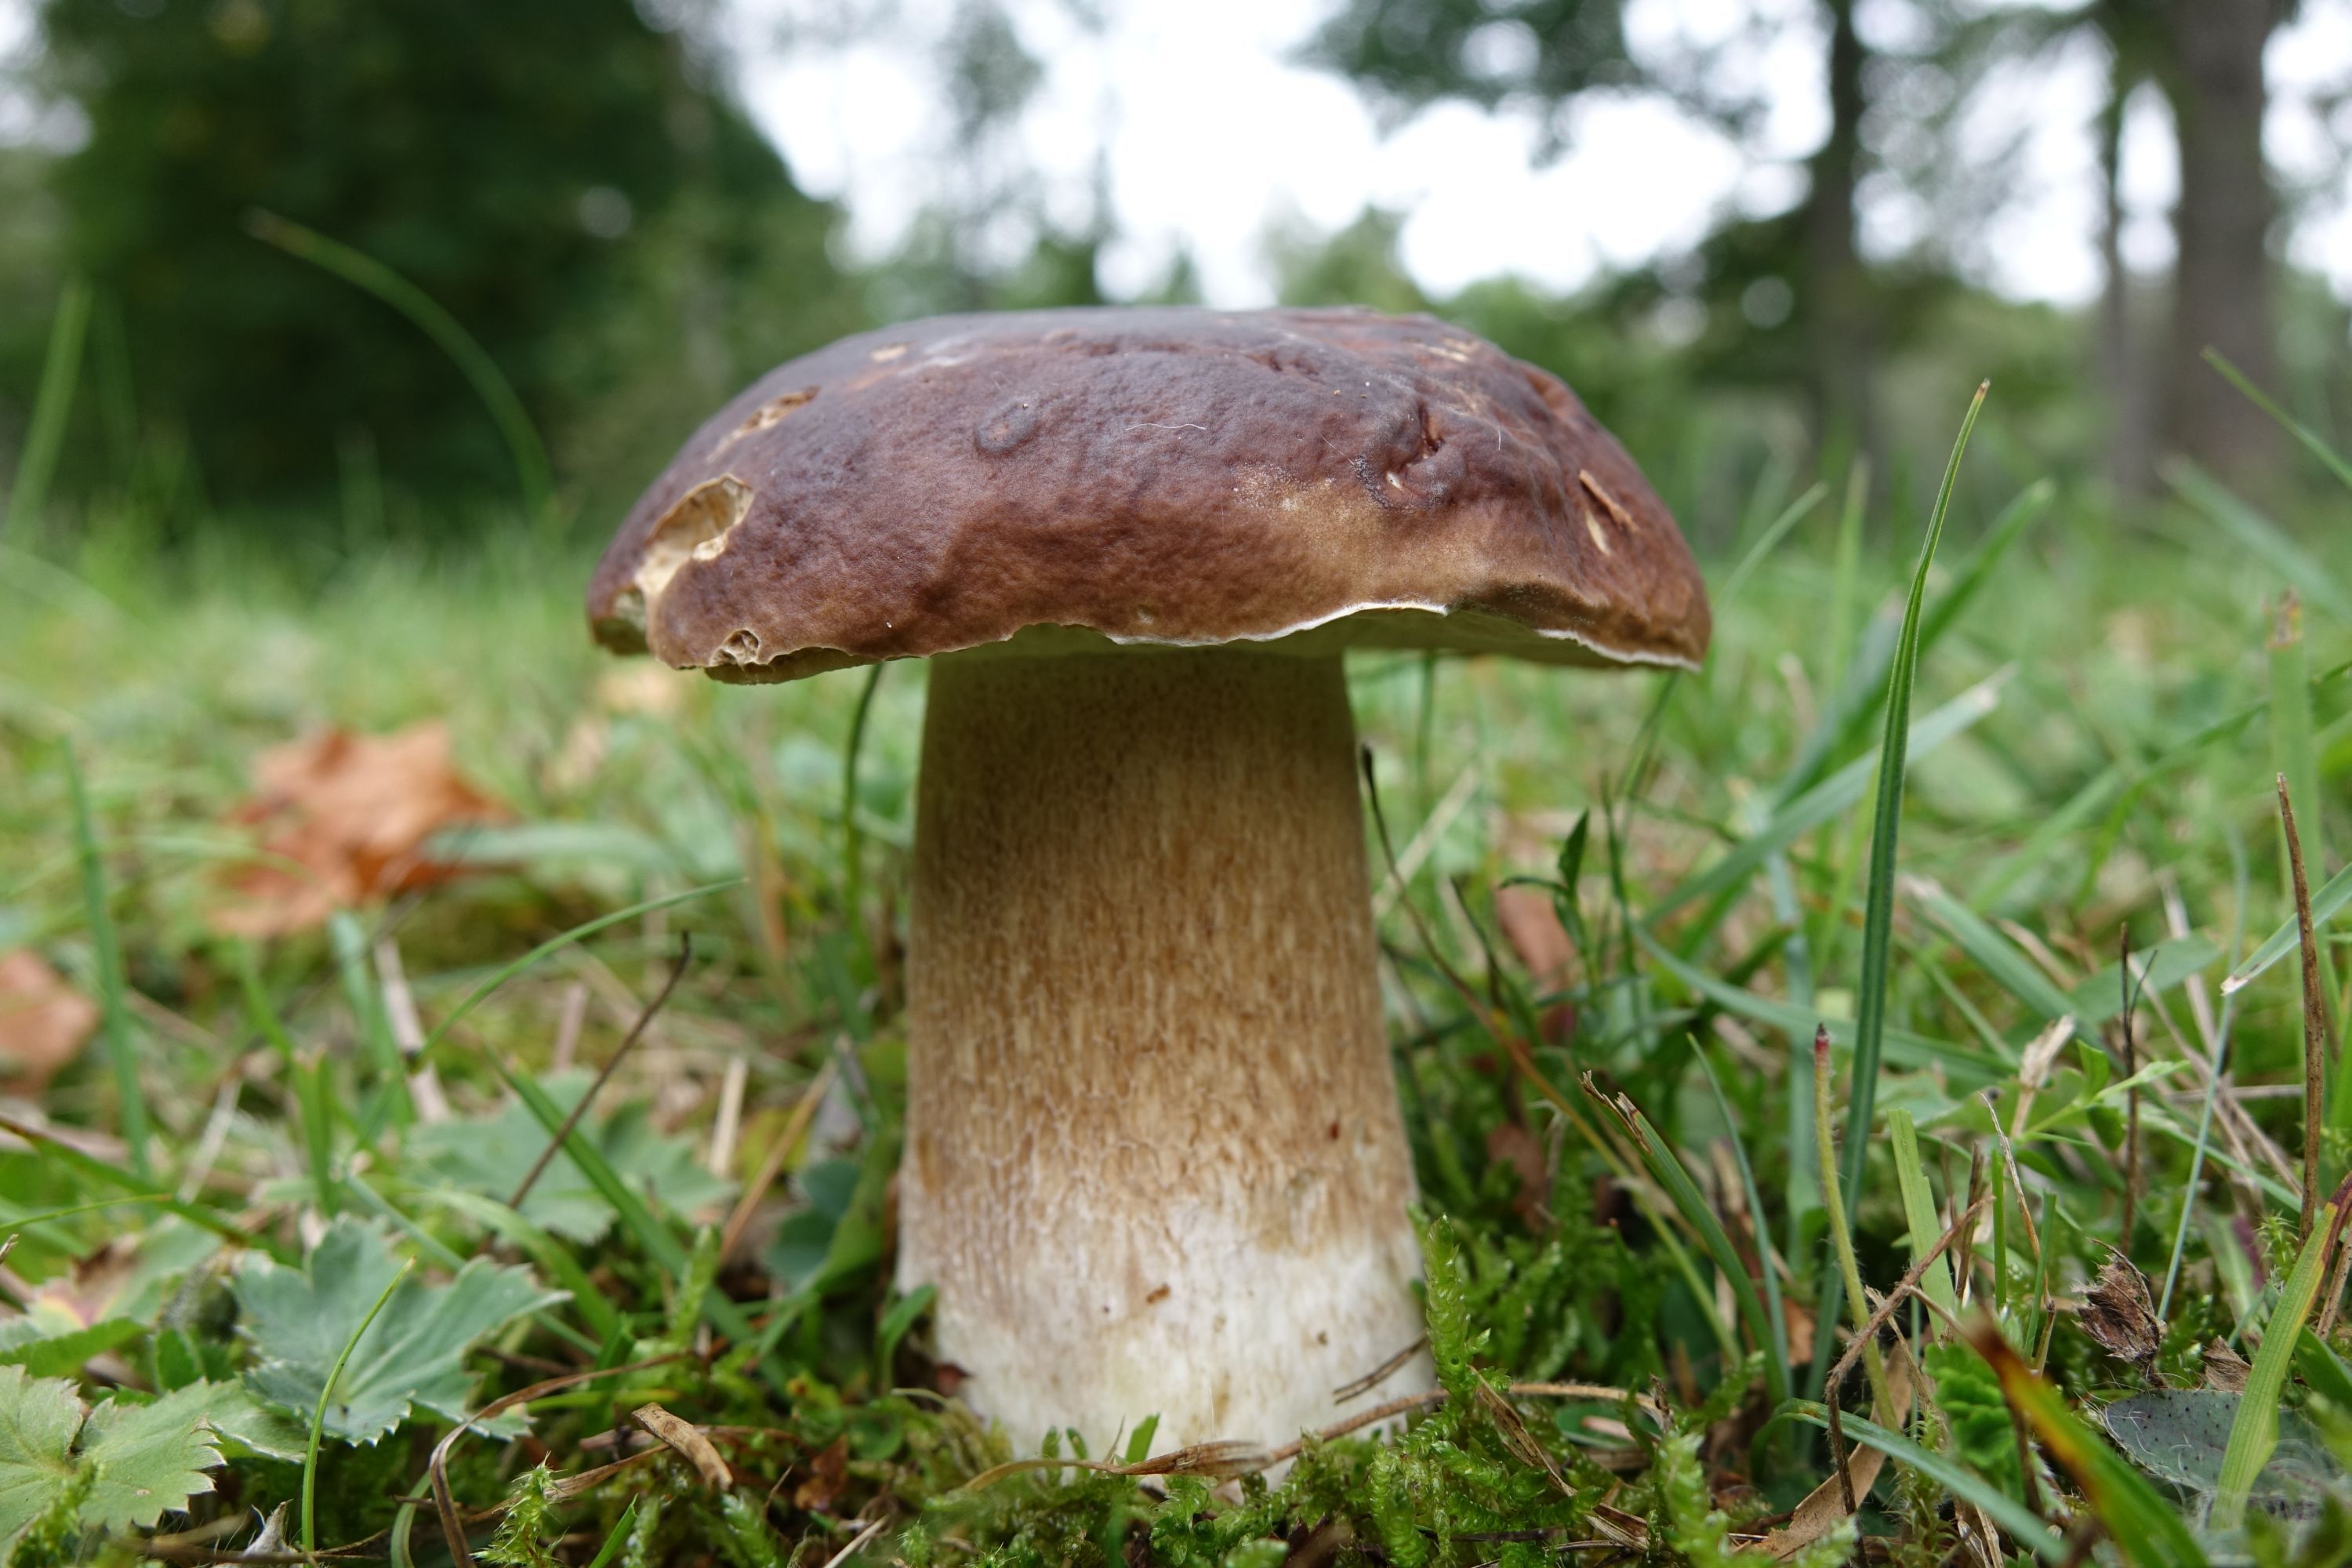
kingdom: Fungi
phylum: Basidiomycota
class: Agaricomycetes
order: Boletales
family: Boletaceae
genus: Boletus
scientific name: Boletus edulis
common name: Cep
